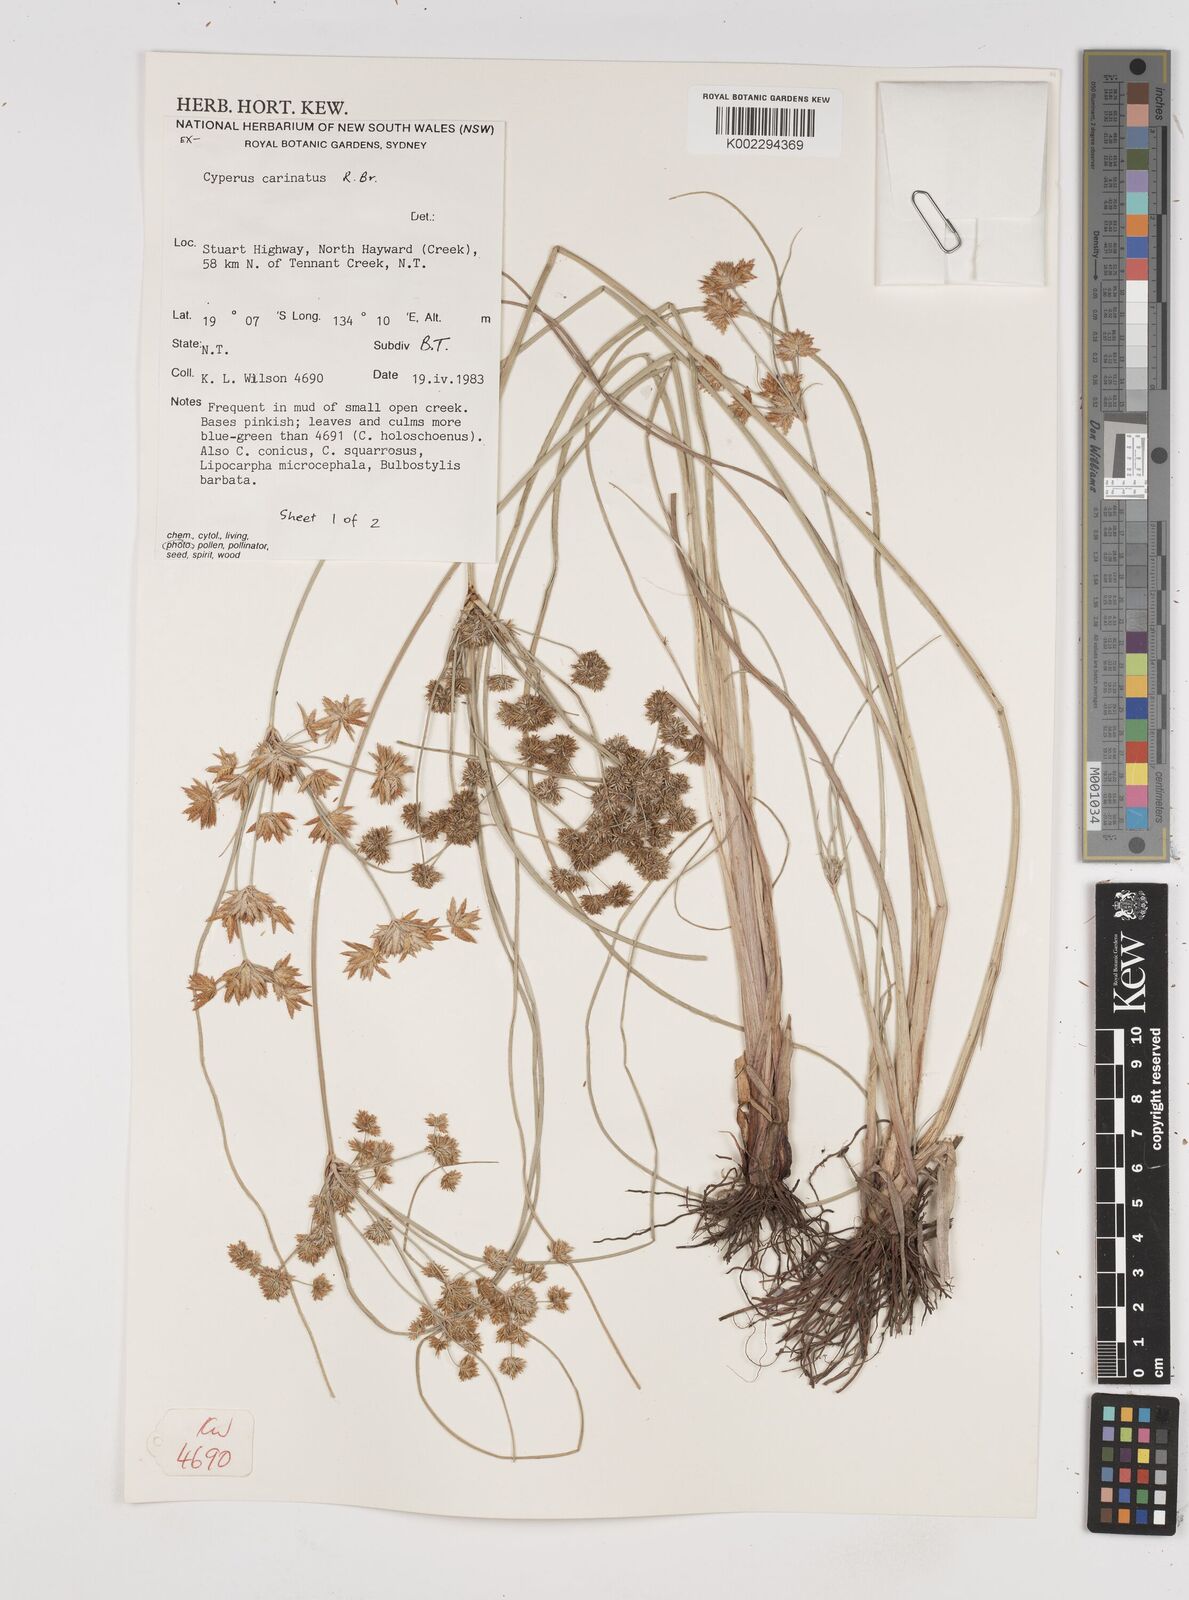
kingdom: Plantae
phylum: Tracheophyta
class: Liliopsida
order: Poales
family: Cyperaceae
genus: Cyperus
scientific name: Cyperus carinatus
